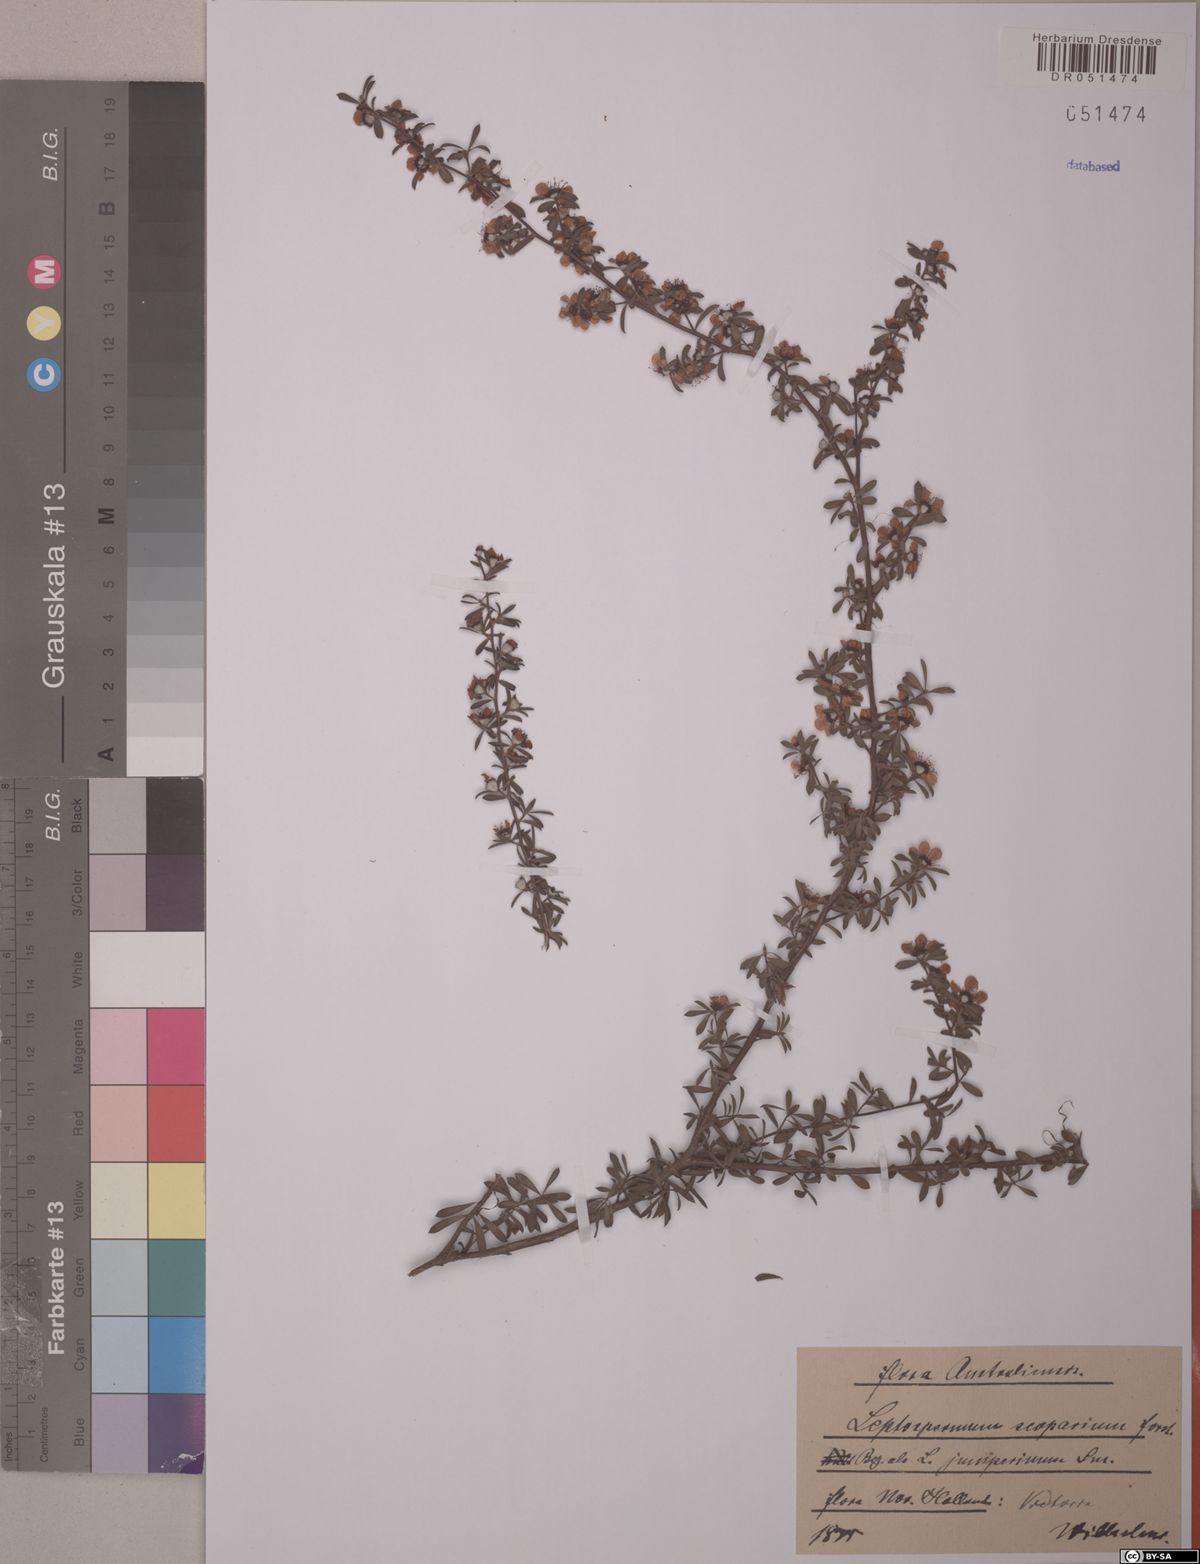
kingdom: Plantae
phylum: Tracheophyta
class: Magnoliopsida
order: Myrtales
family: Myrtaceae
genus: Leptospermum
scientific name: Leptospermum scoparium
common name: Broom tea-tree
